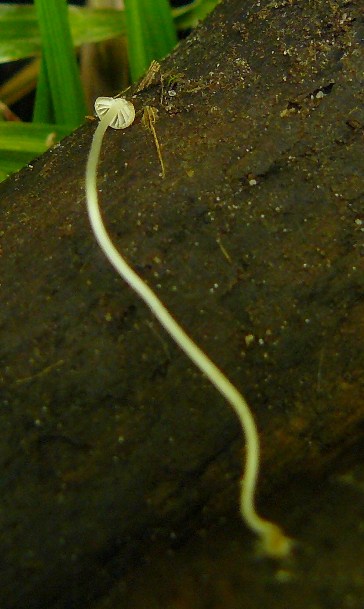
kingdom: Fungi
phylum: Basidiomycota
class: Agaricomycetes
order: Agaricales
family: Porotheleaceae
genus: Phloeomana
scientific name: Phloeomana speirea
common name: kvist-huesvamp
